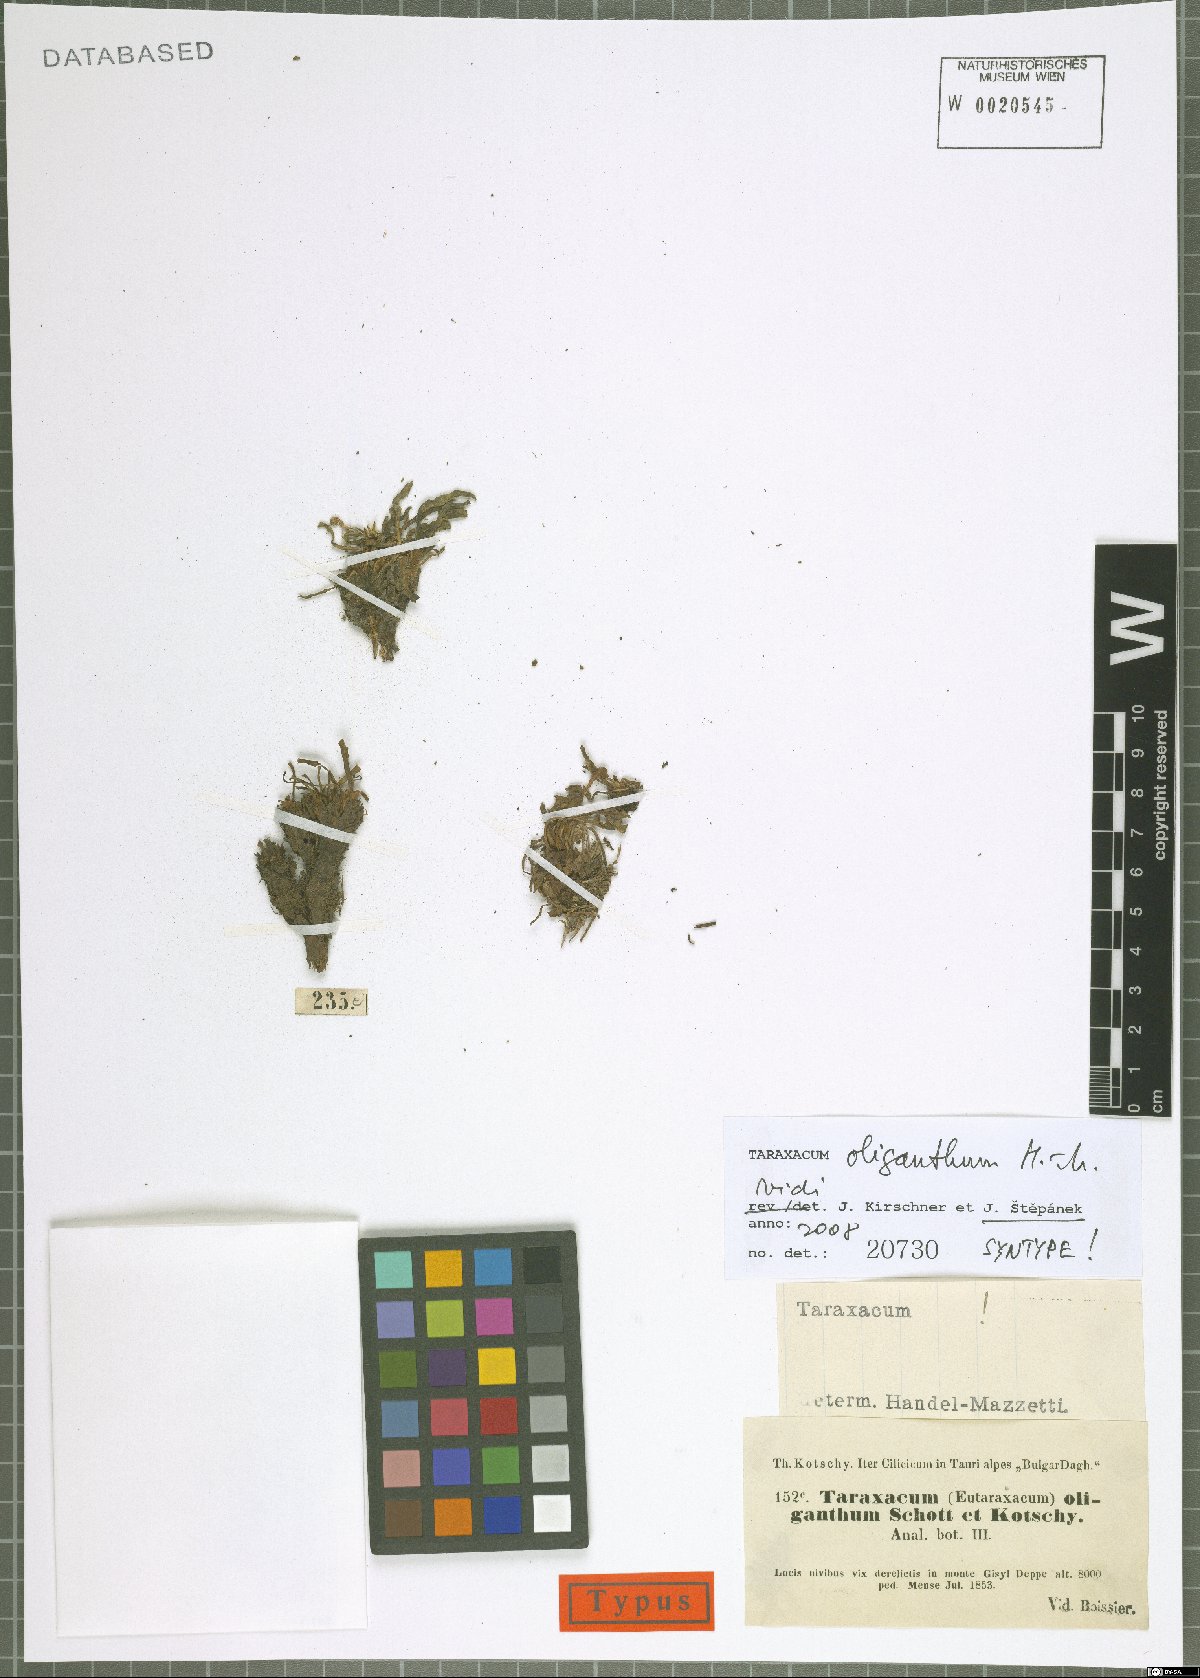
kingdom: Plantae
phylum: Tracheophyta
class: Magnoliopsida
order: Asterales
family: Asteraceae
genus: Taraxacum
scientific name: Taraxacum oliganthum
